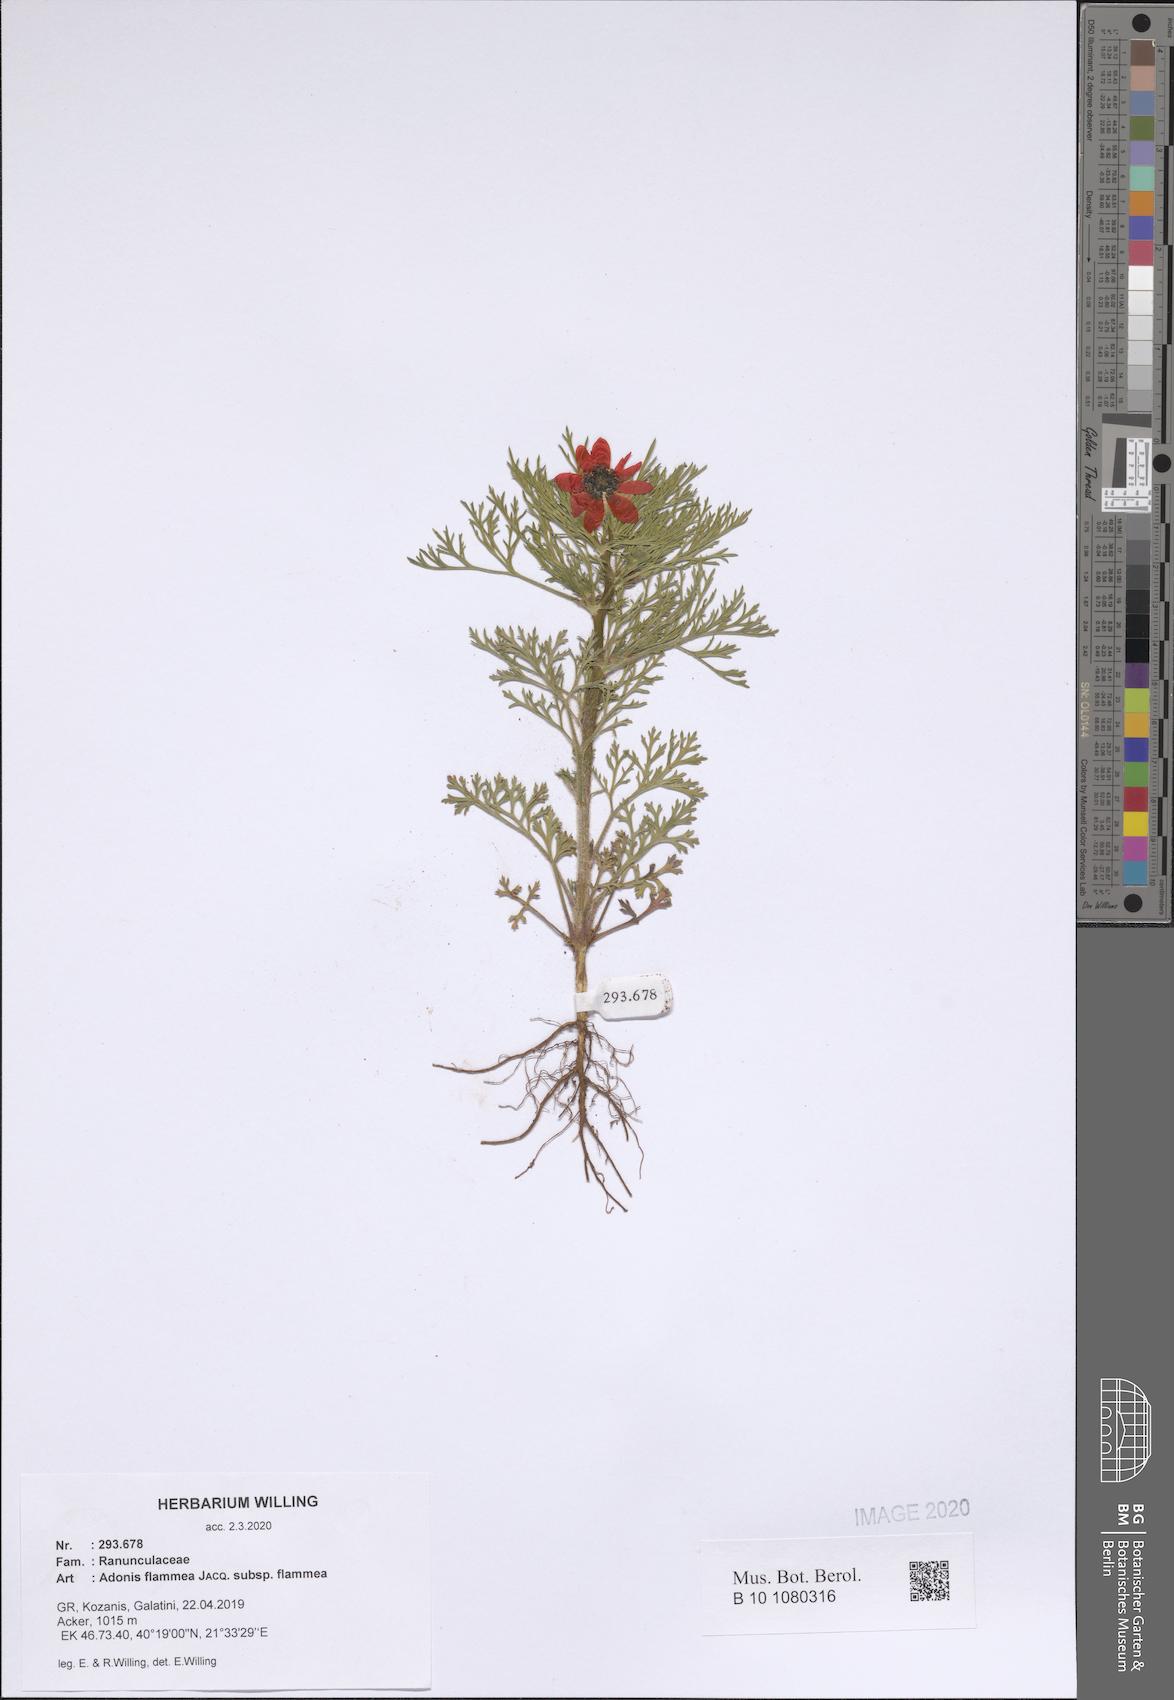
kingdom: Plantae
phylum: Tracheophyta
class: Magnoliopsida
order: Ranunculales
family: Ranunculaceae
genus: Adonis
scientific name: Adonis flammea
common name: Large pheasant's-eye
